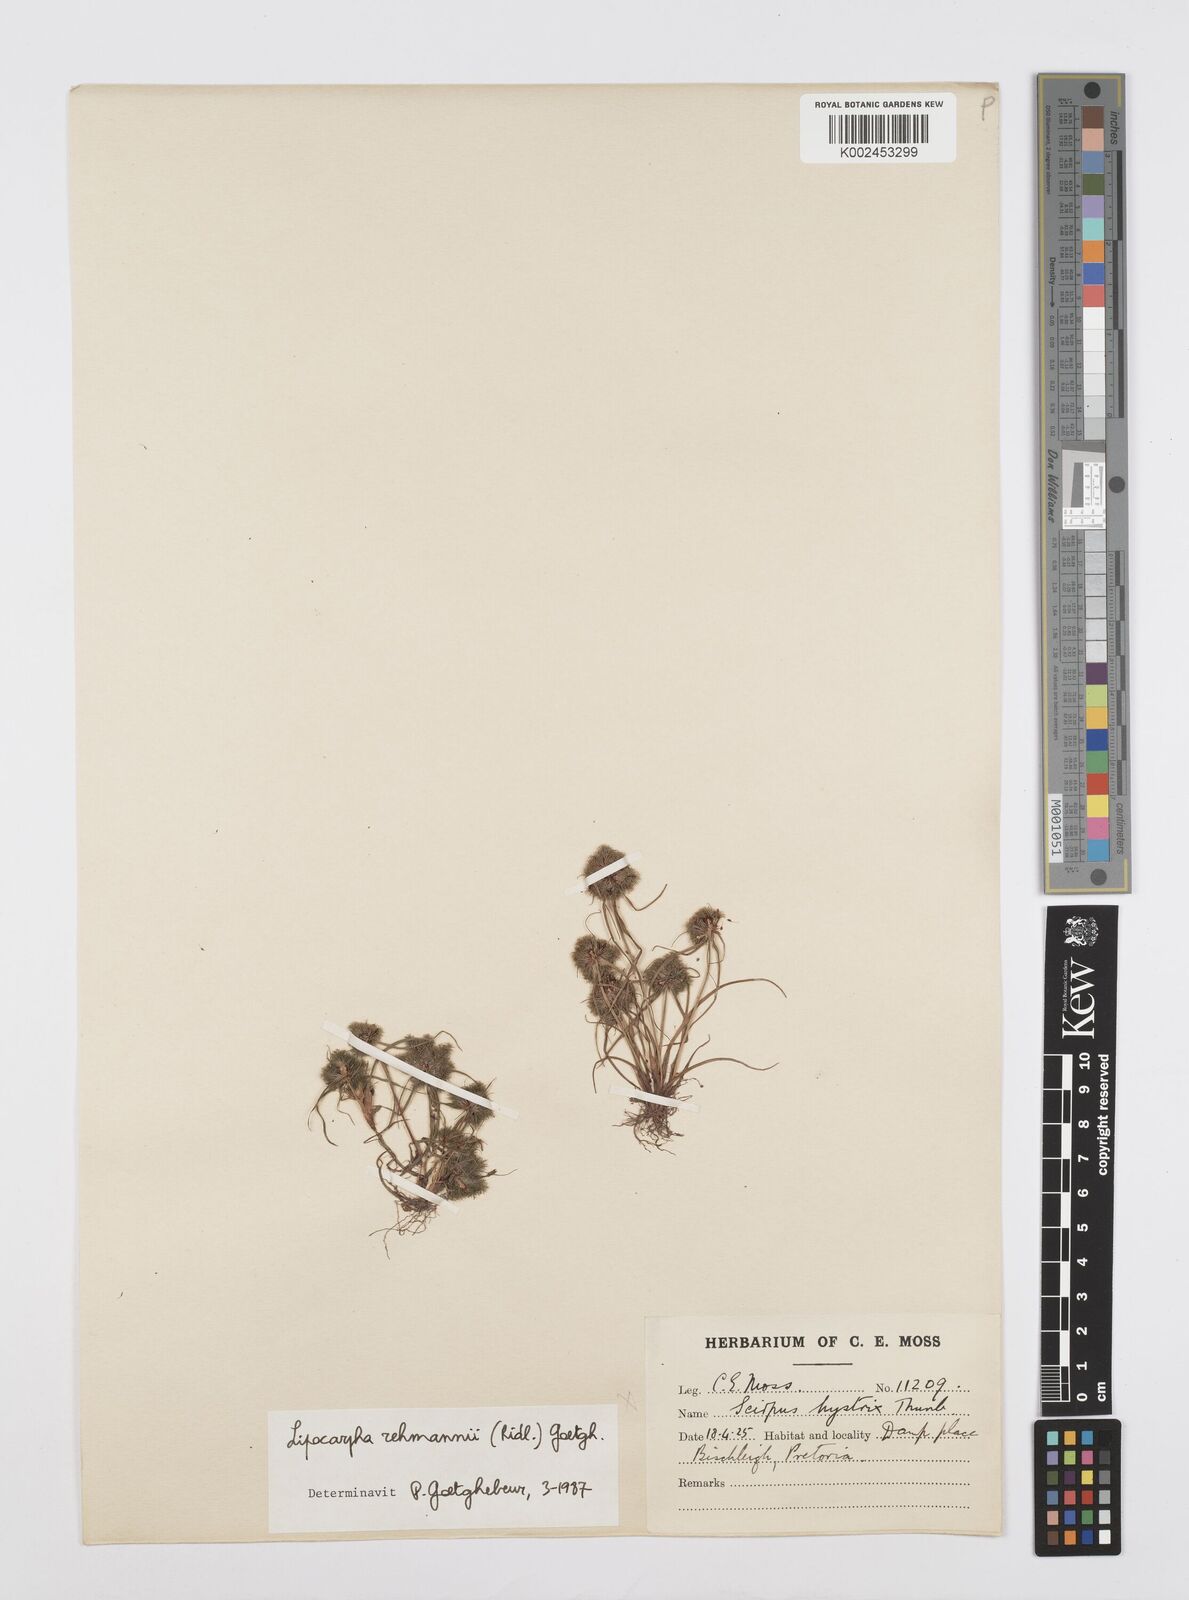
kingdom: Plantae
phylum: Tracheophyta
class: Liliopsida
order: Poales
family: Cyperaceae
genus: Cyperus
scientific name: Cyperus sanguinolentus
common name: Purpleglume flatsedge
